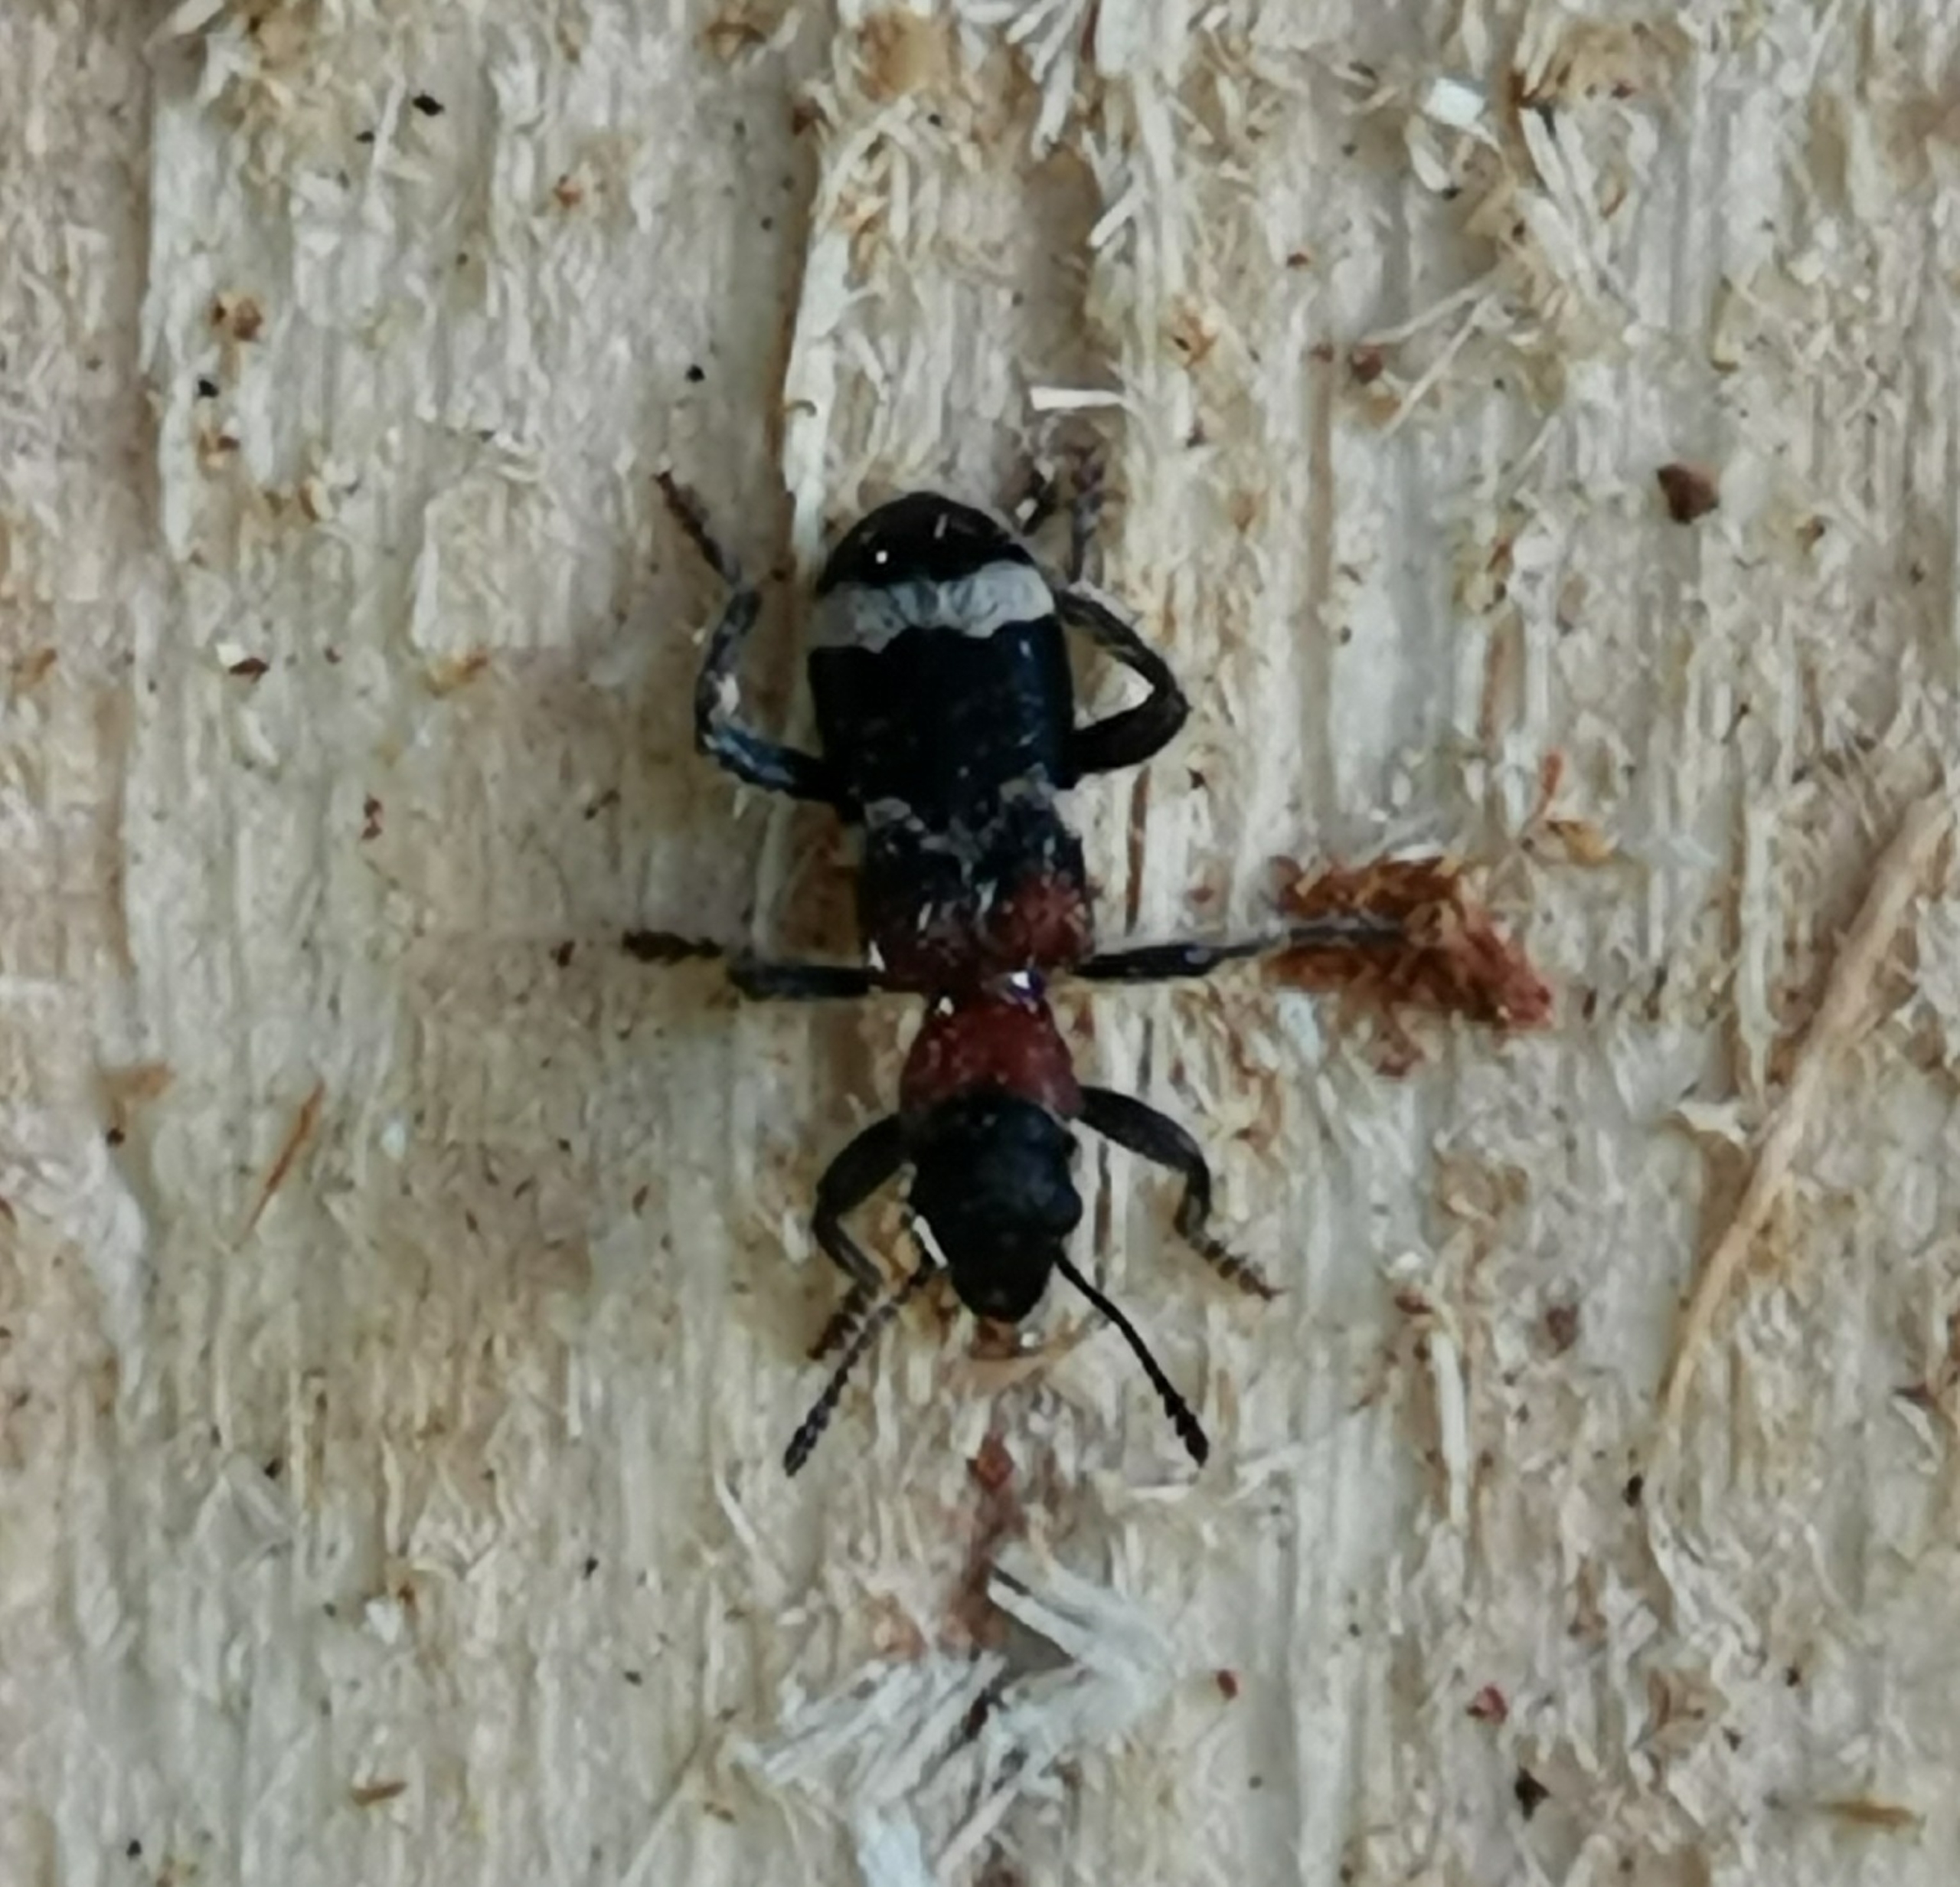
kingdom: Animalia
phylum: Arthropoda
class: Insecta
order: Coleoptera
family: Cleridae
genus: Thanasimus
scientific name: Thanasimus formicarius
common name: Myrebille
